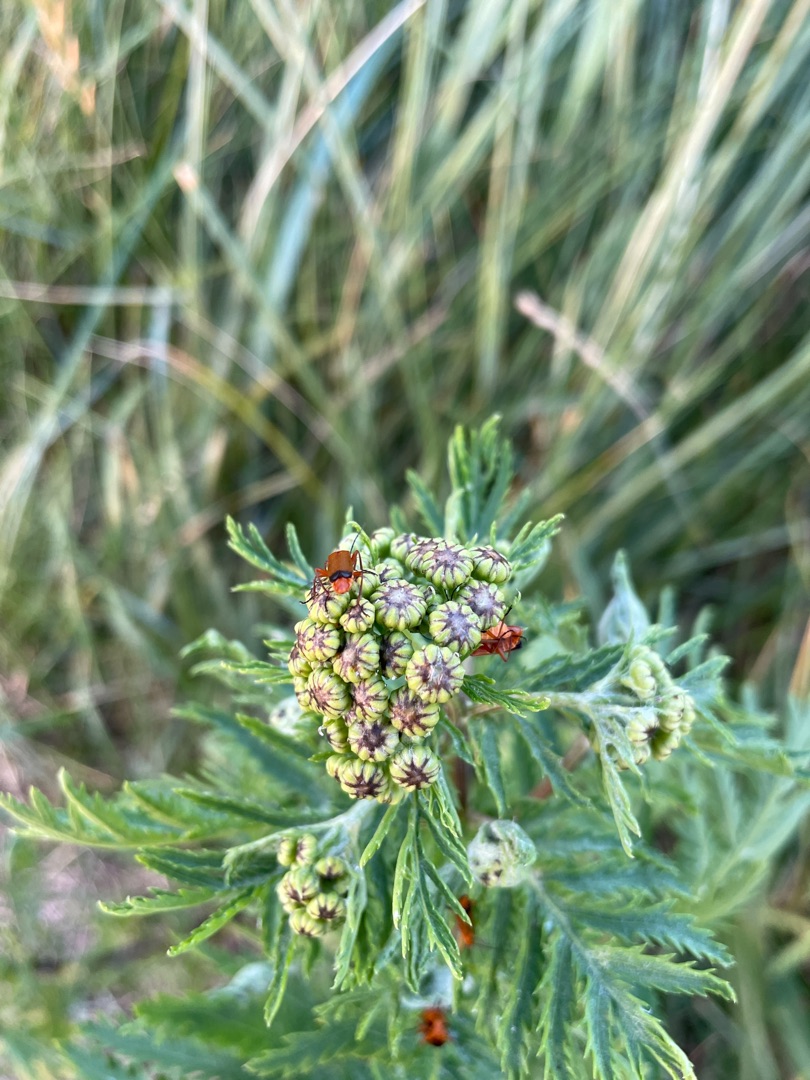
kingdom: Animalia
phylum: Arthropoda
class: Insecta
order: Coleoptera
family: Cantharidae
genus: Rhagonycha
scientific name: Rhagonycha fulva
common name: Præstebille
